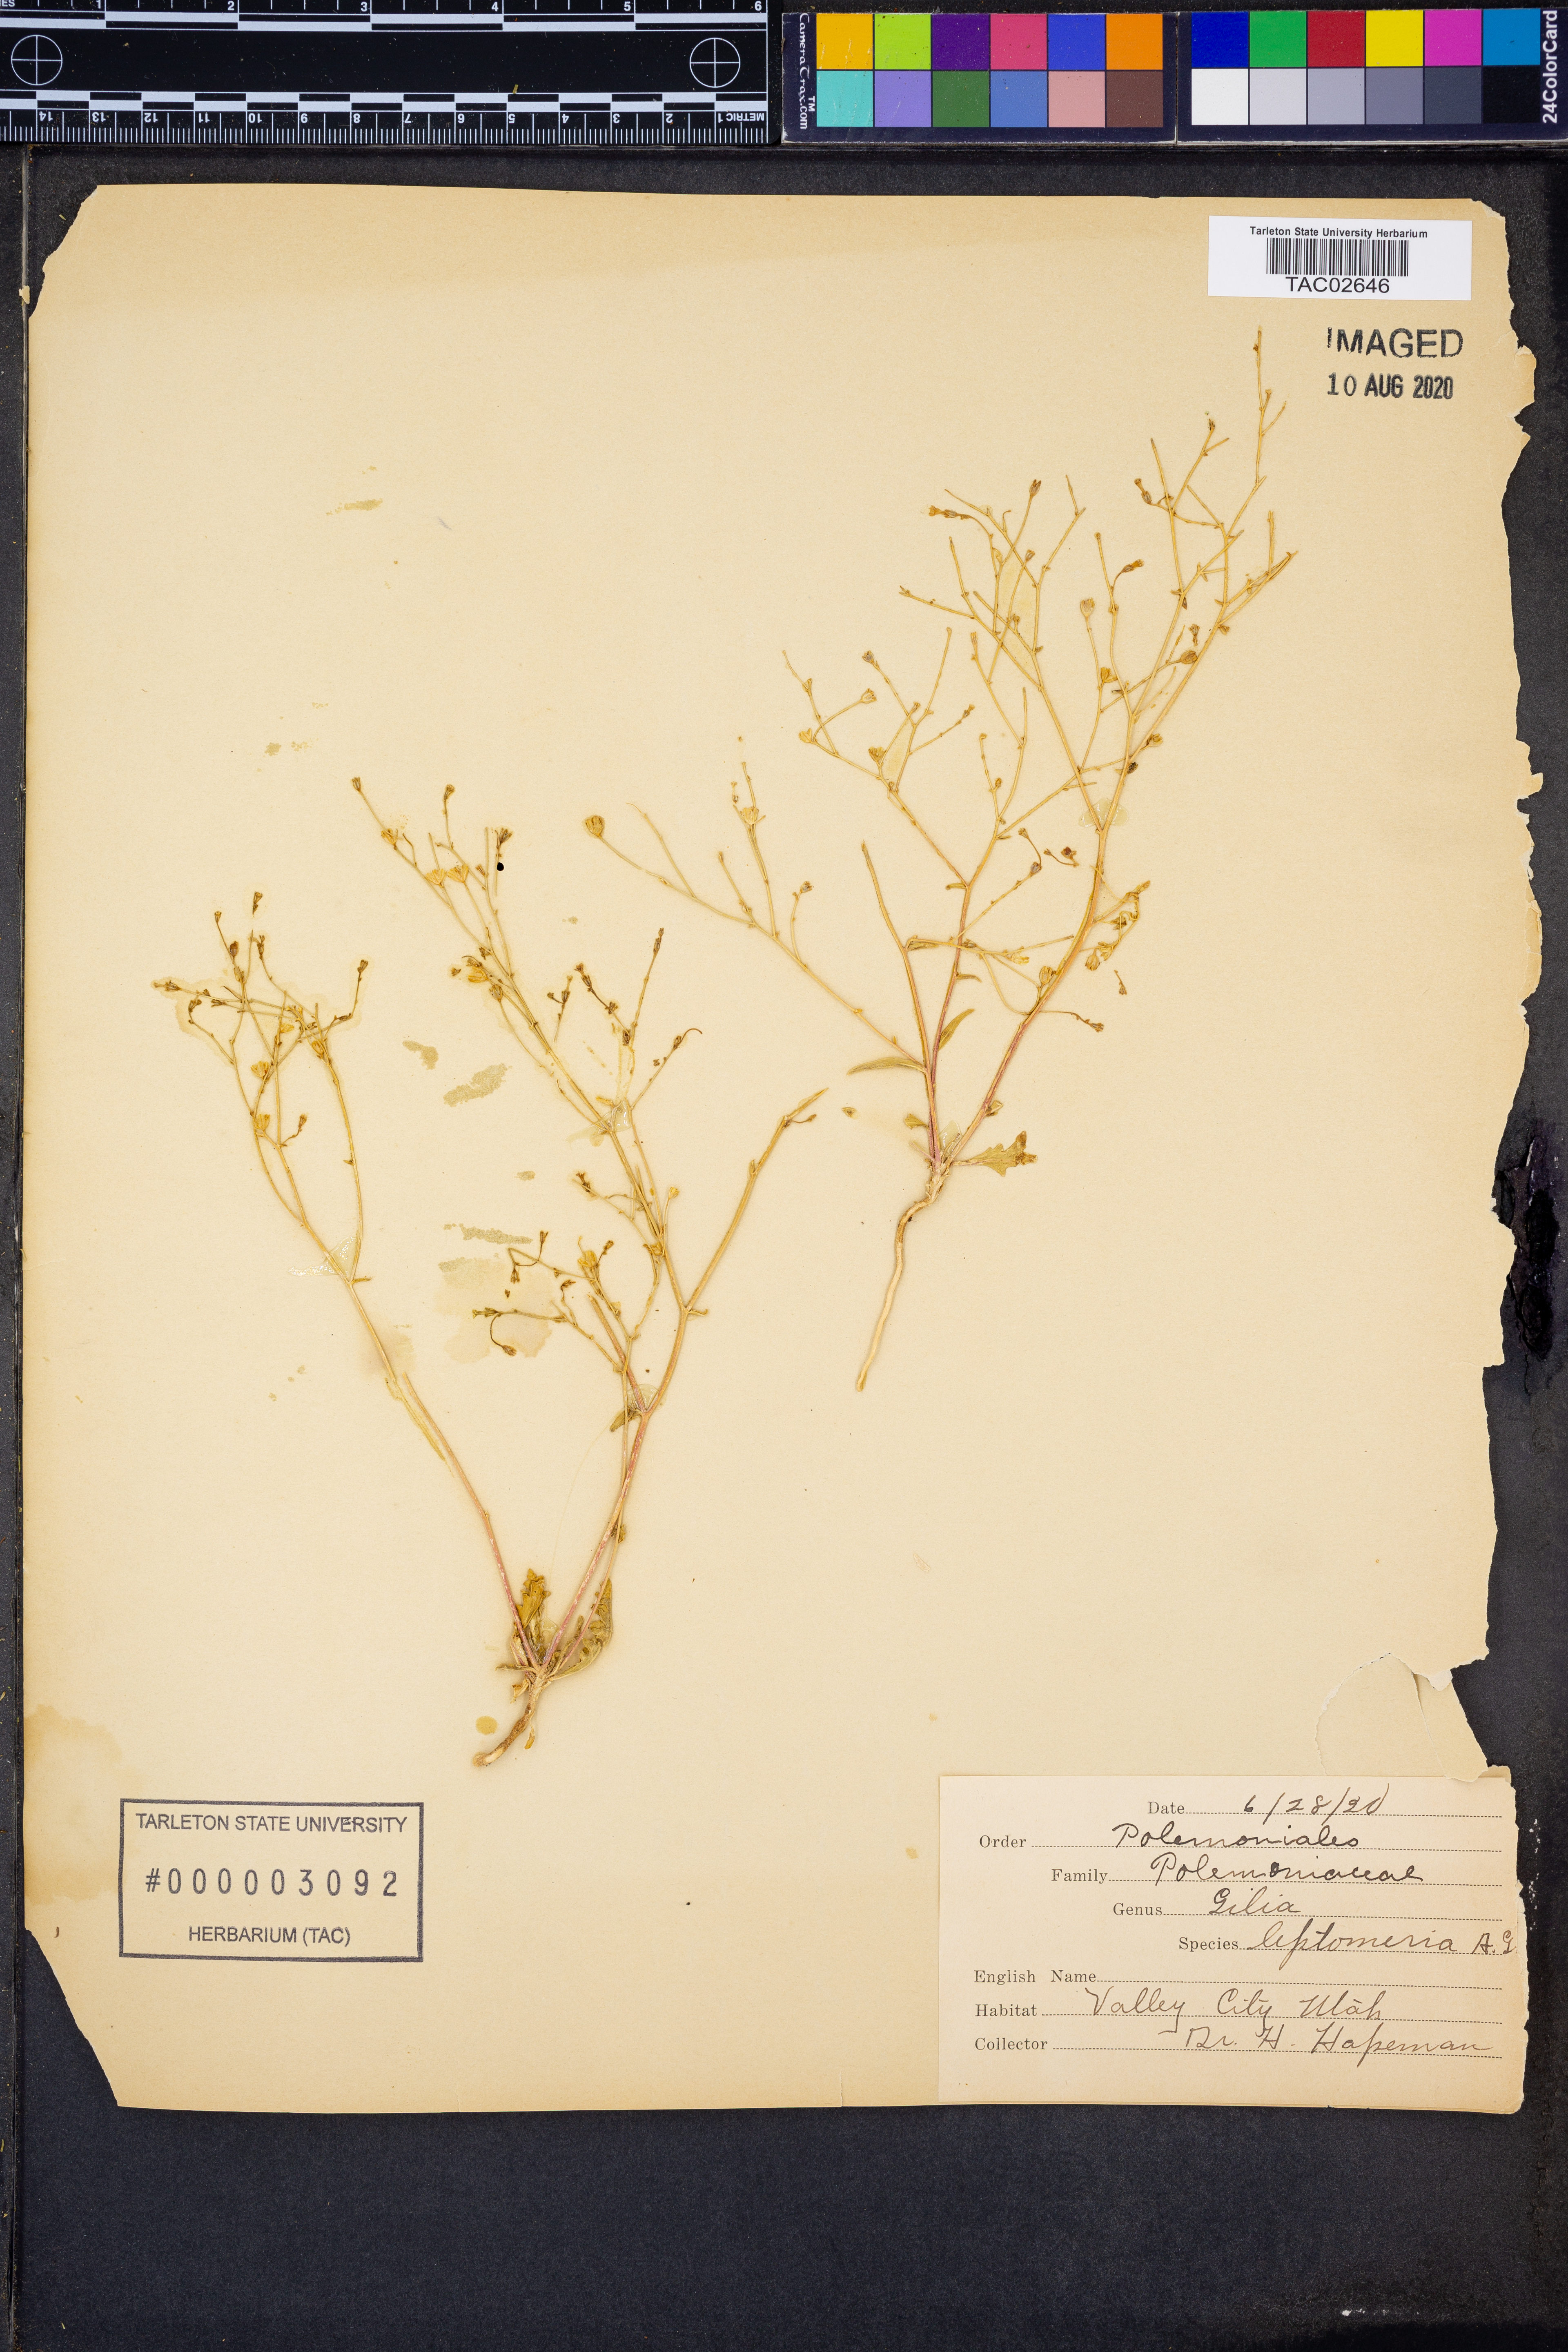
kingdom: Plantae
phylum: Tracheophyta
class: Magnoliopsida
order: Ericales
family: Polemoniaceae
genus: Aliciella
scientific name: Aliciella leptomeria
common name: Sand gilia
